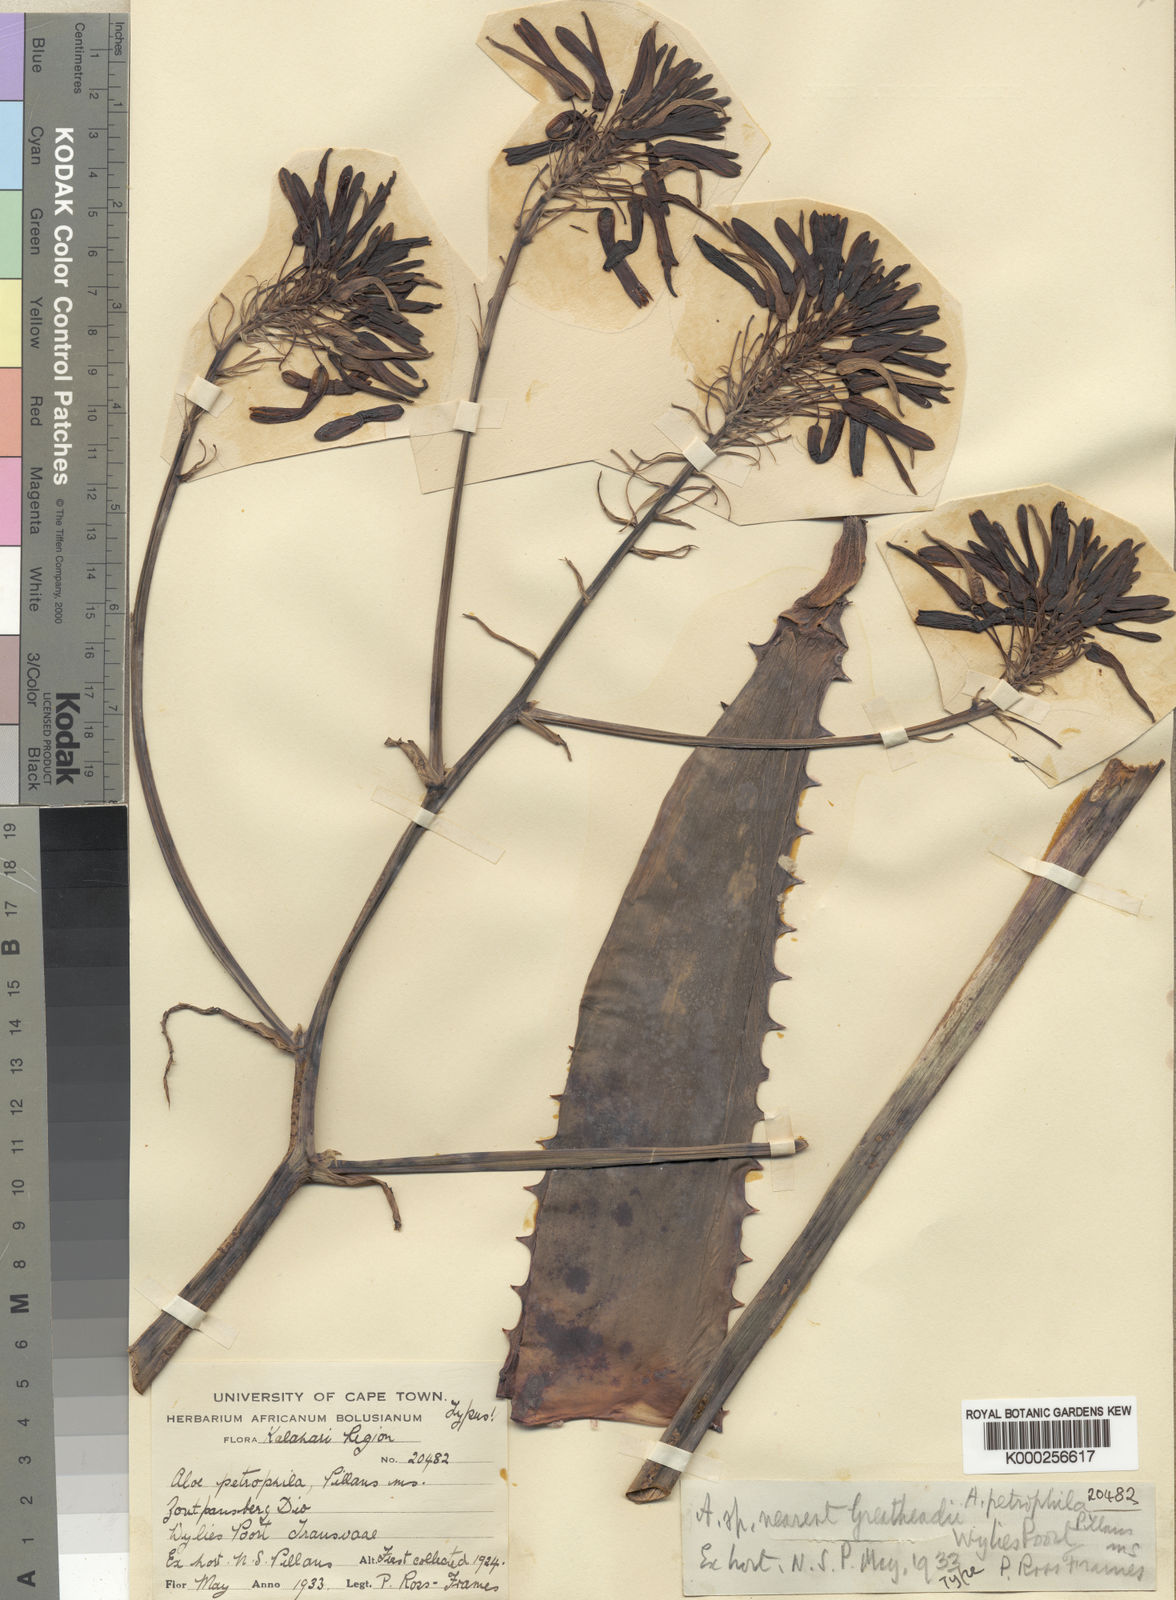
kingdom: Plantae
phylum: Tracheophyta
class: Liliopsida
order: Asparagales
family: Asphodelaceae
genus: Aloe
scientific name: Aloe petrophila
